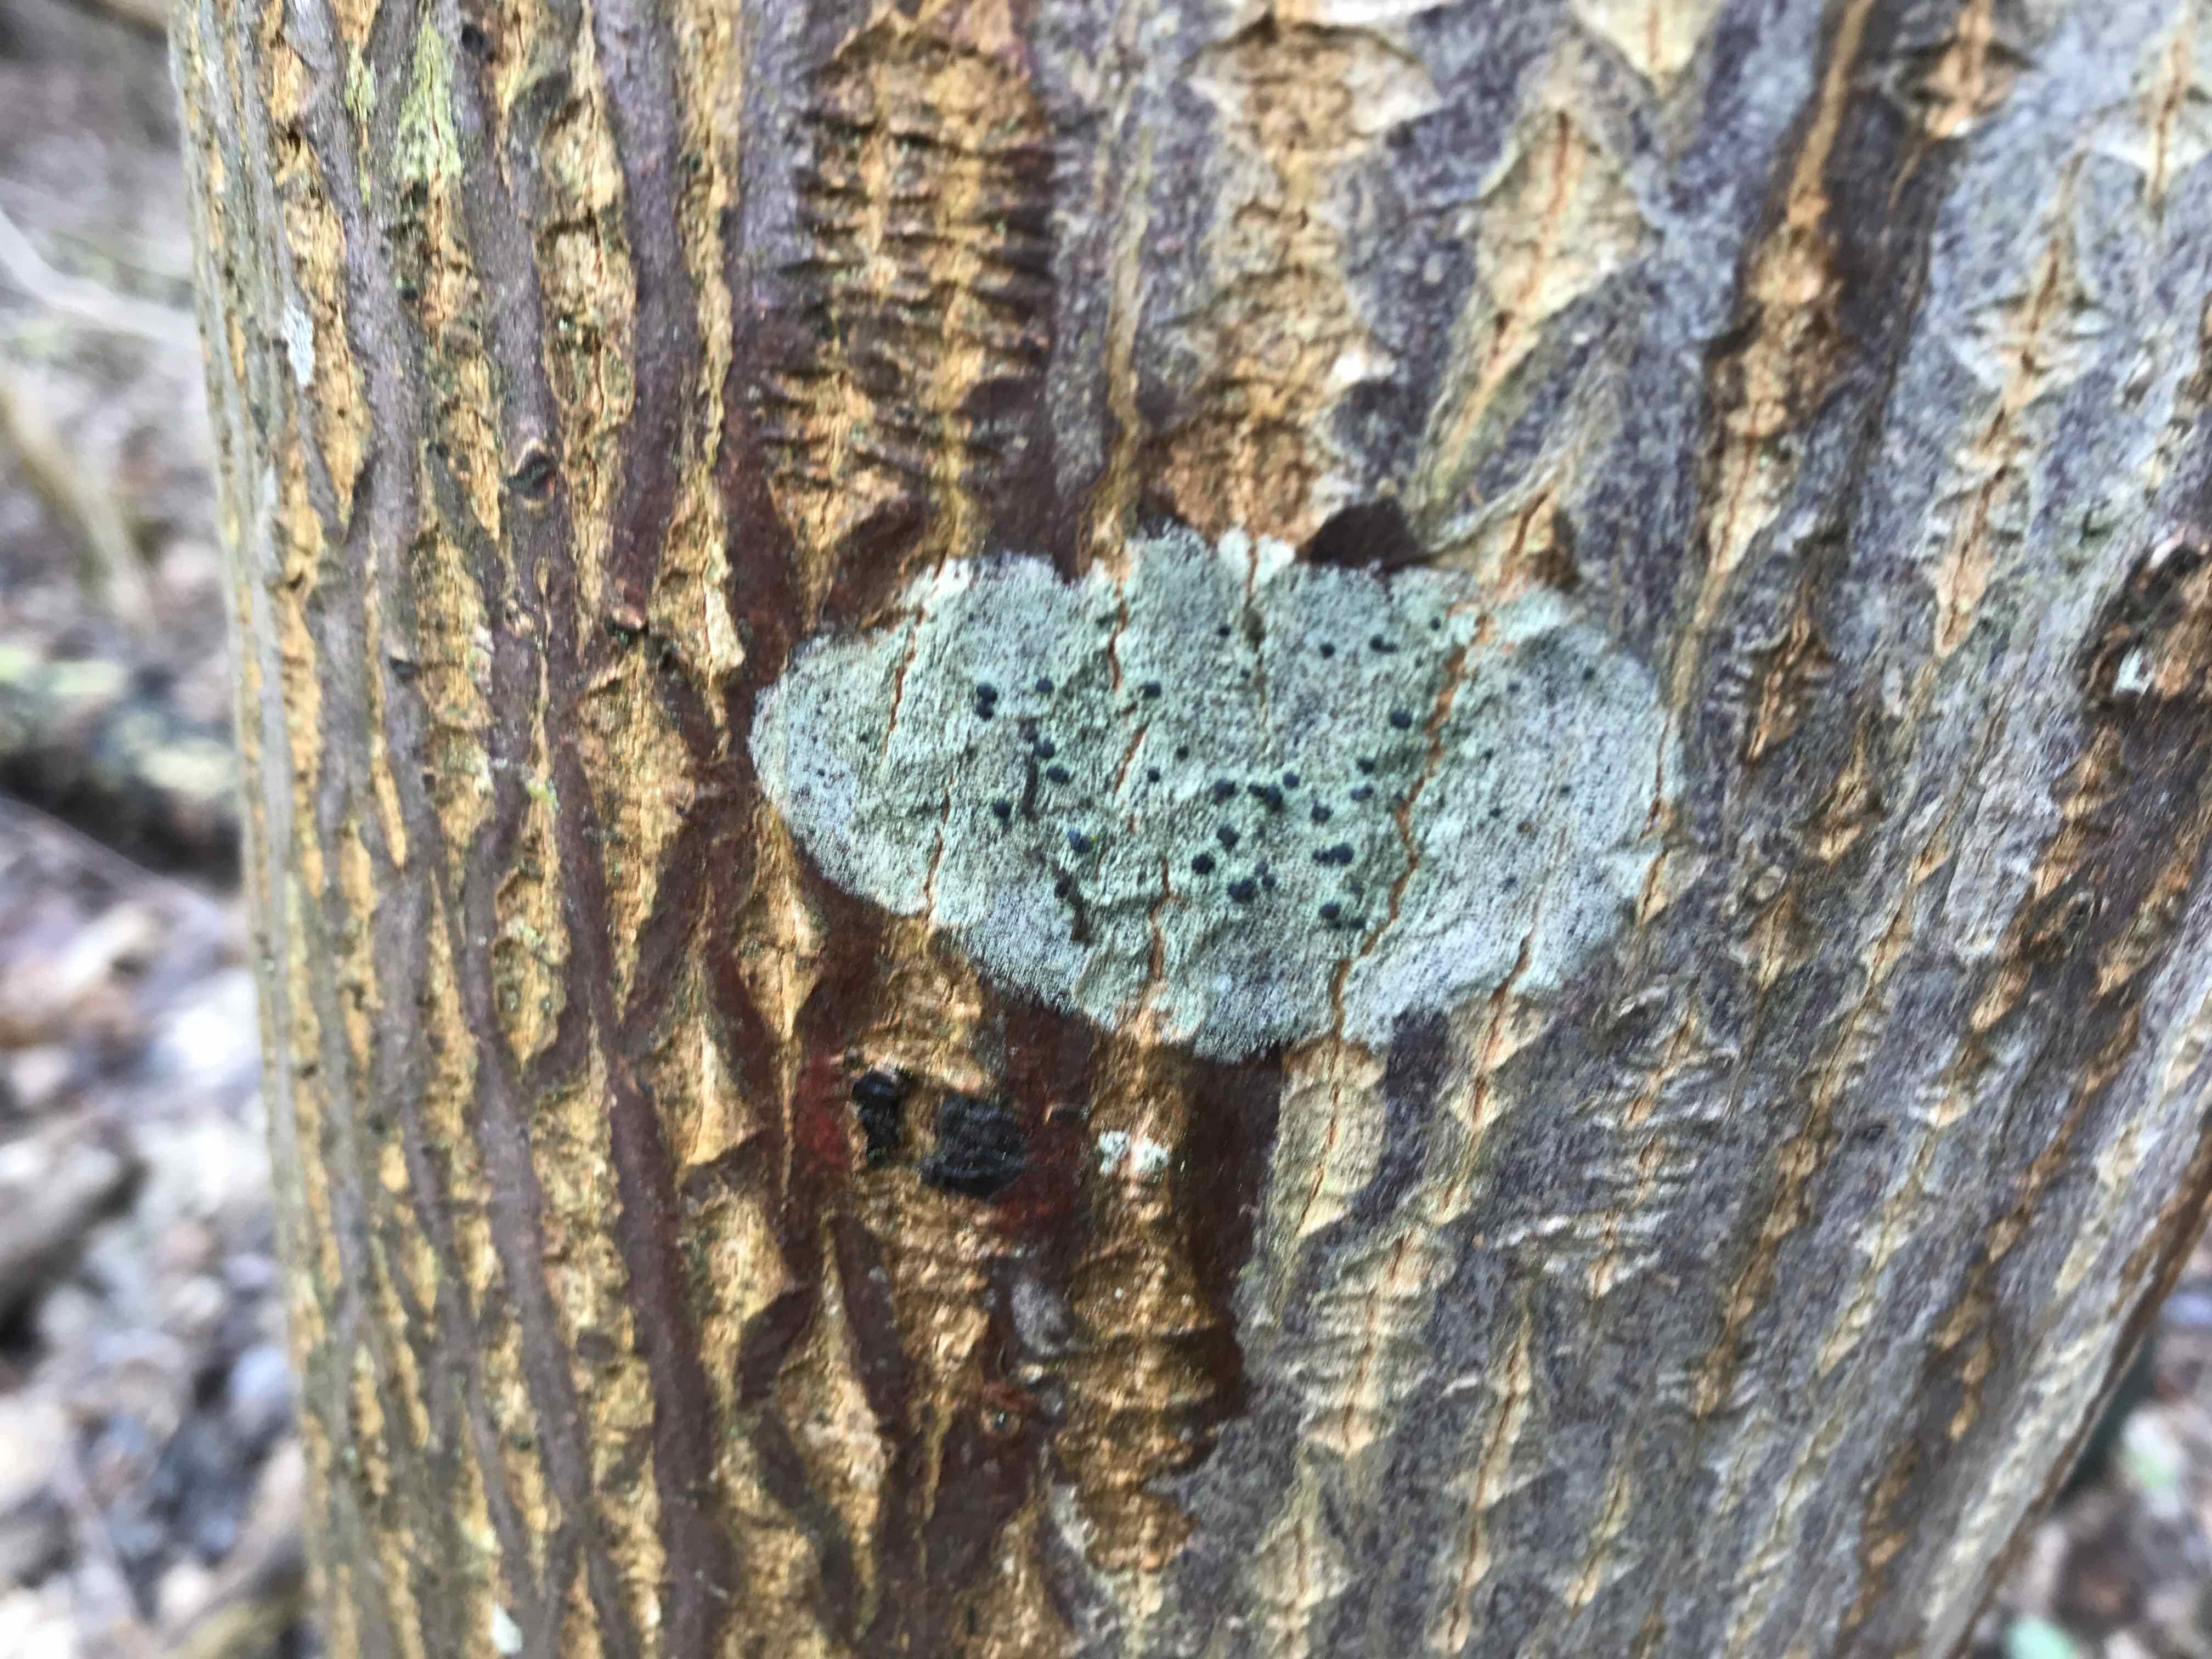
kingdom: Fungi
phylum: Ascomycota
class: Lecanoromycetes
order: Lecanorales
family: Lecanoraceae
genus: Lecidella
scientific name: Lecidella elaeochroma
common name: grågrøn skivelav
